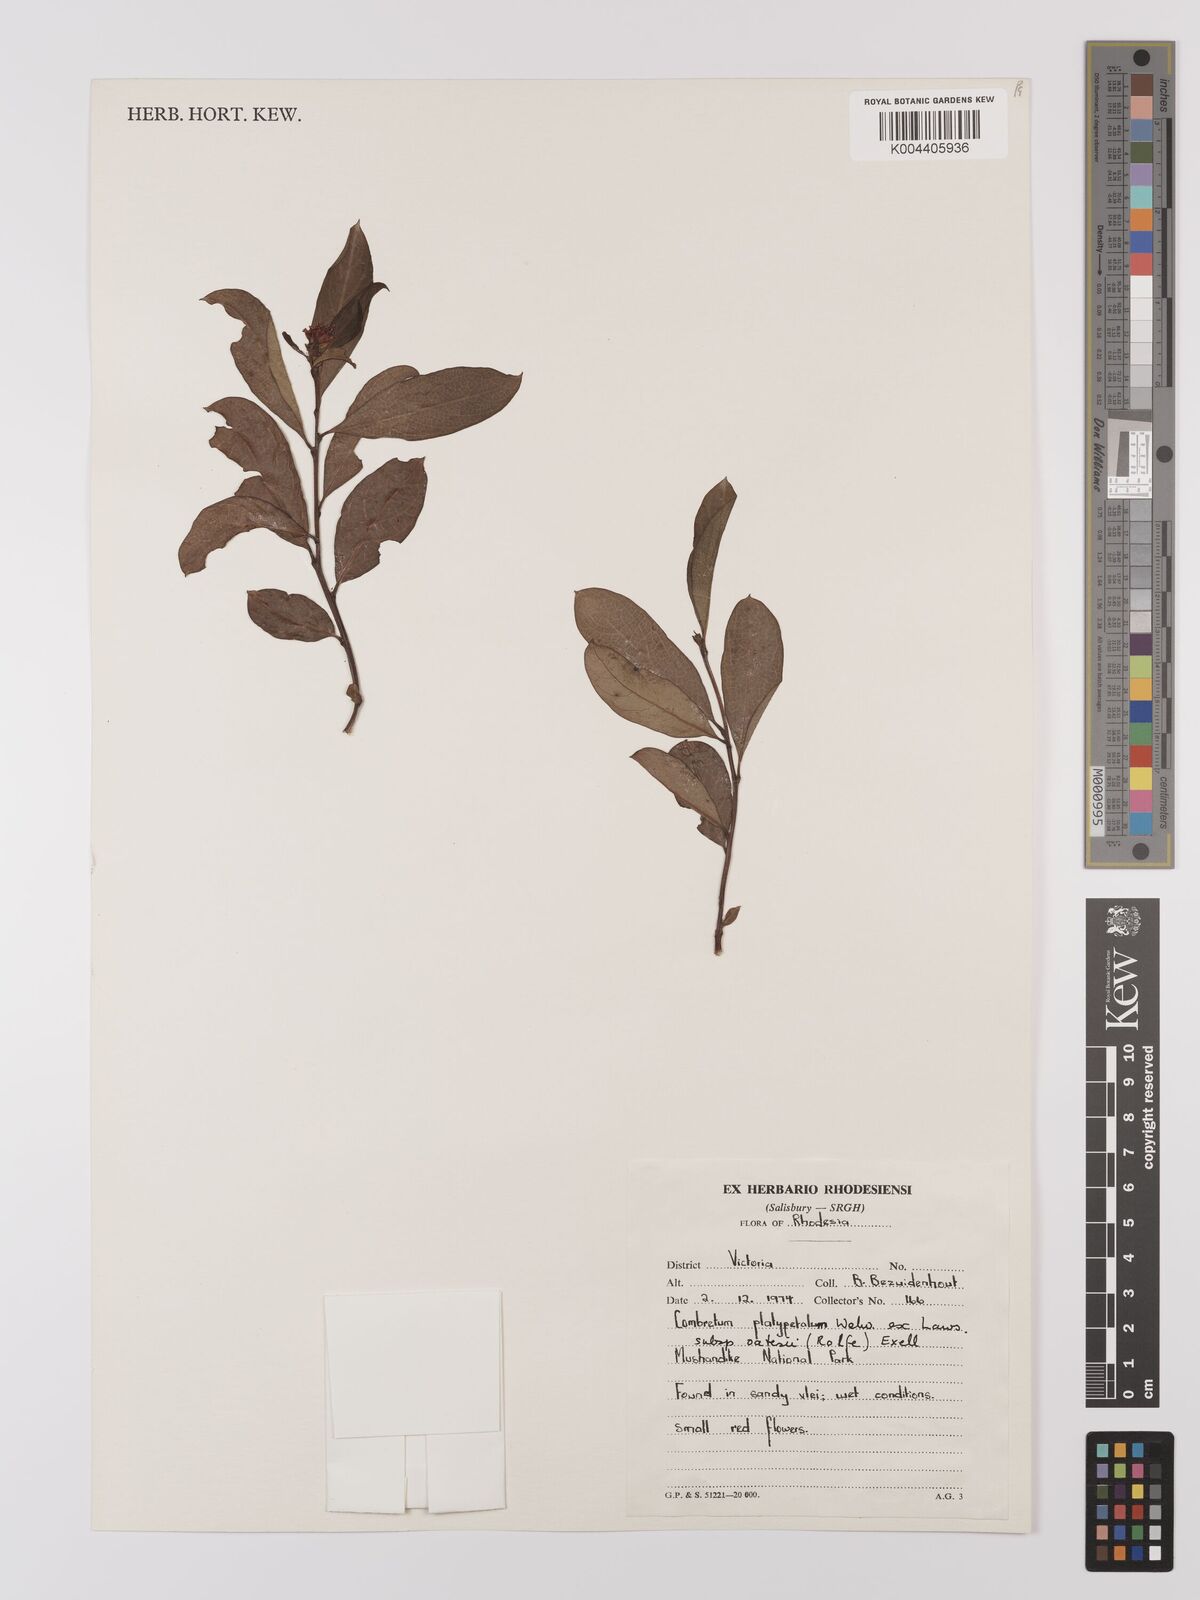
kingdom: Plantae
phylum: Tracheophyta
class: Magnoliopsida
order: Myrtales
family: Combretaceae
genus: Combretum
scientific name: Combretum platypetalum
